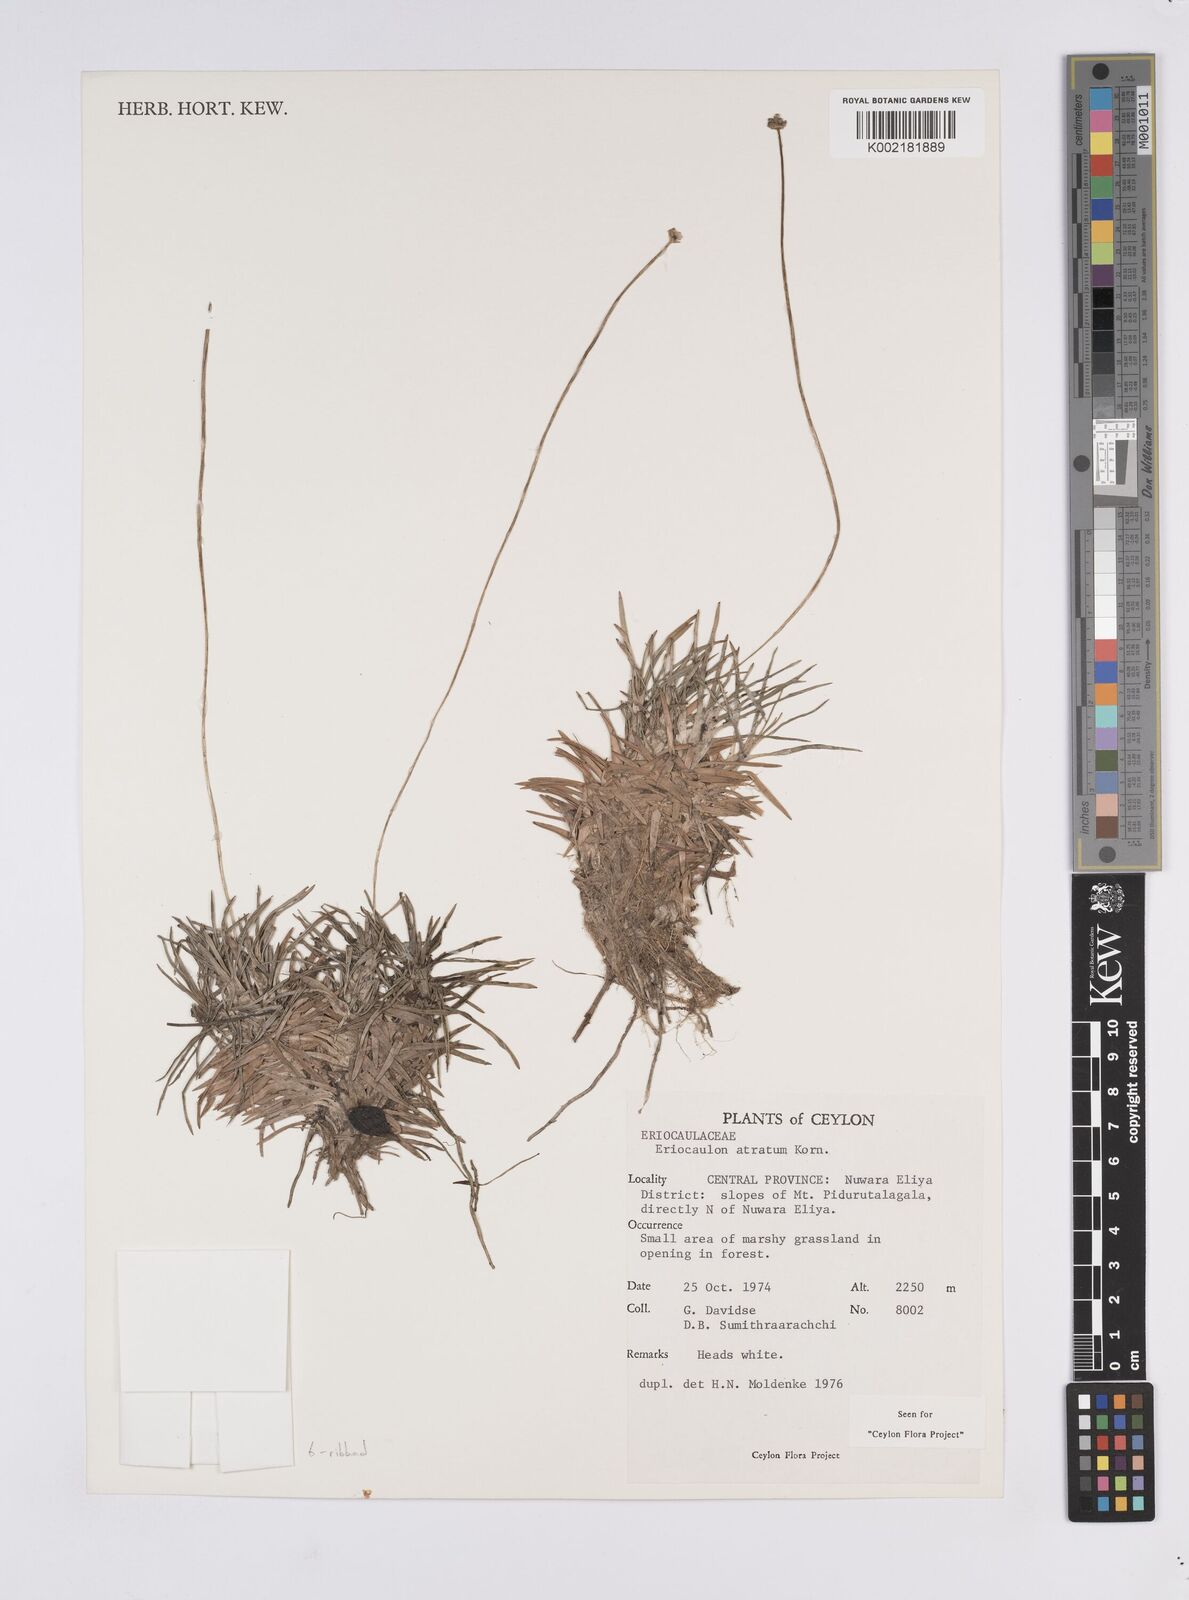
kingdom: Plantae
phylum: Tracheophyta
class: Liliopsida
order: Poales
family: Eriocaulaceae
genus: Eriocaulon
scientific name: Eriocaulon philippo-coburgii
